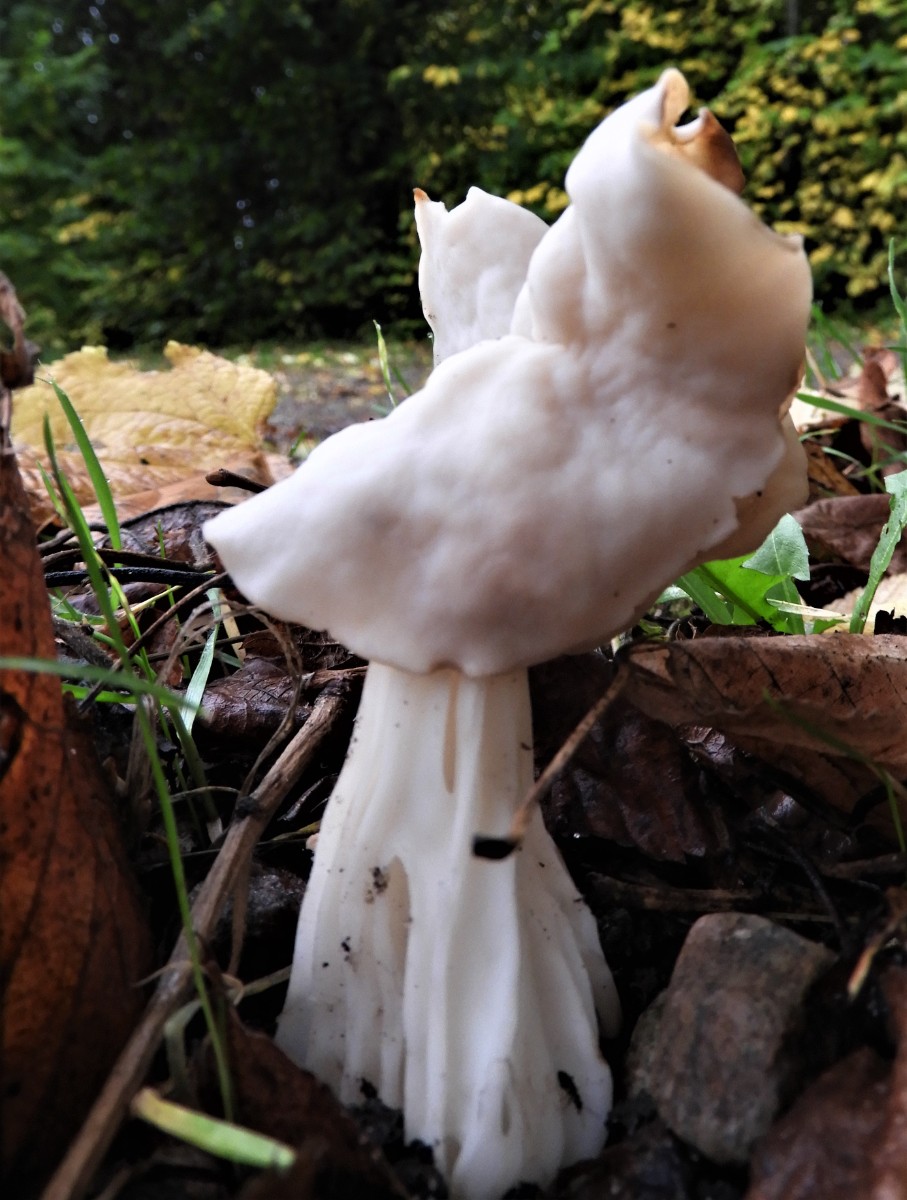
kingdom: Fungi
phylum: Ascomycota
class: Pezizomycetes
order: Pezizales
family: Helvellaceae
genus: Helvella
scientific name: Helvella crispa
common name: kruset foldhat
